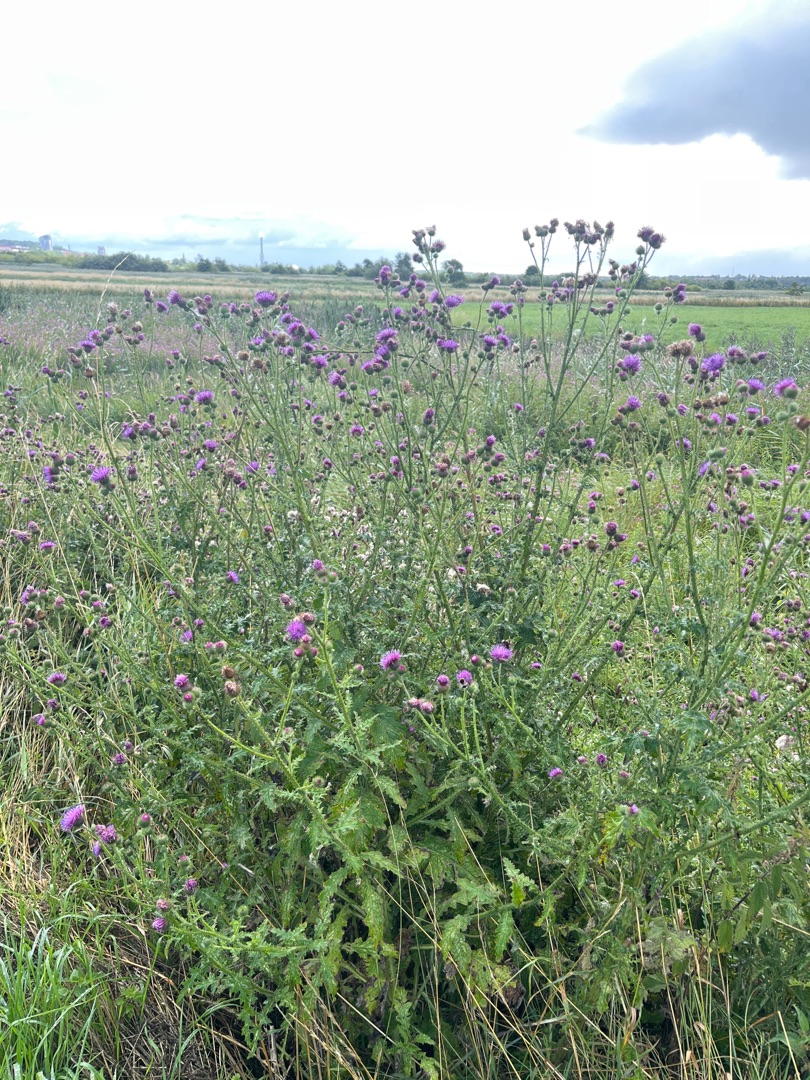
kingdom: Plantae
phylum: Tracheophyta
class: Magnoliopsida
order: Asterales
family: Asteraceae
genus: Carduus
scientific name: Carduus crispus
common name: Kruset tidsel
